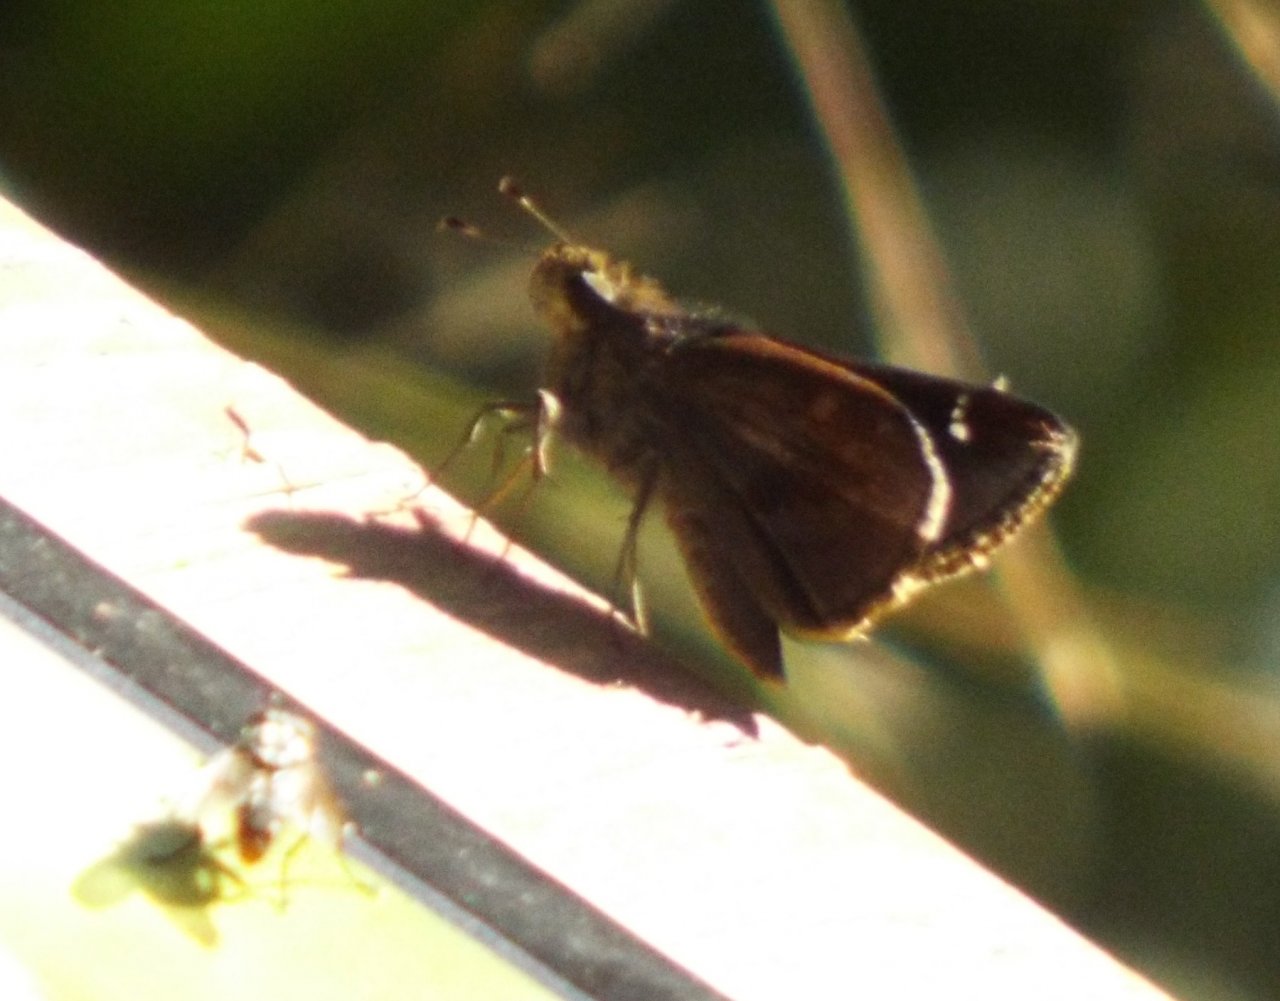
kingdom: Animalia
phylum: Arthropoda
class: Insecta
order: Lepidoptera
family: Hesperiidae
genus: Lerema
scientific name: Lerema accius
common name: Clouded Skipper
